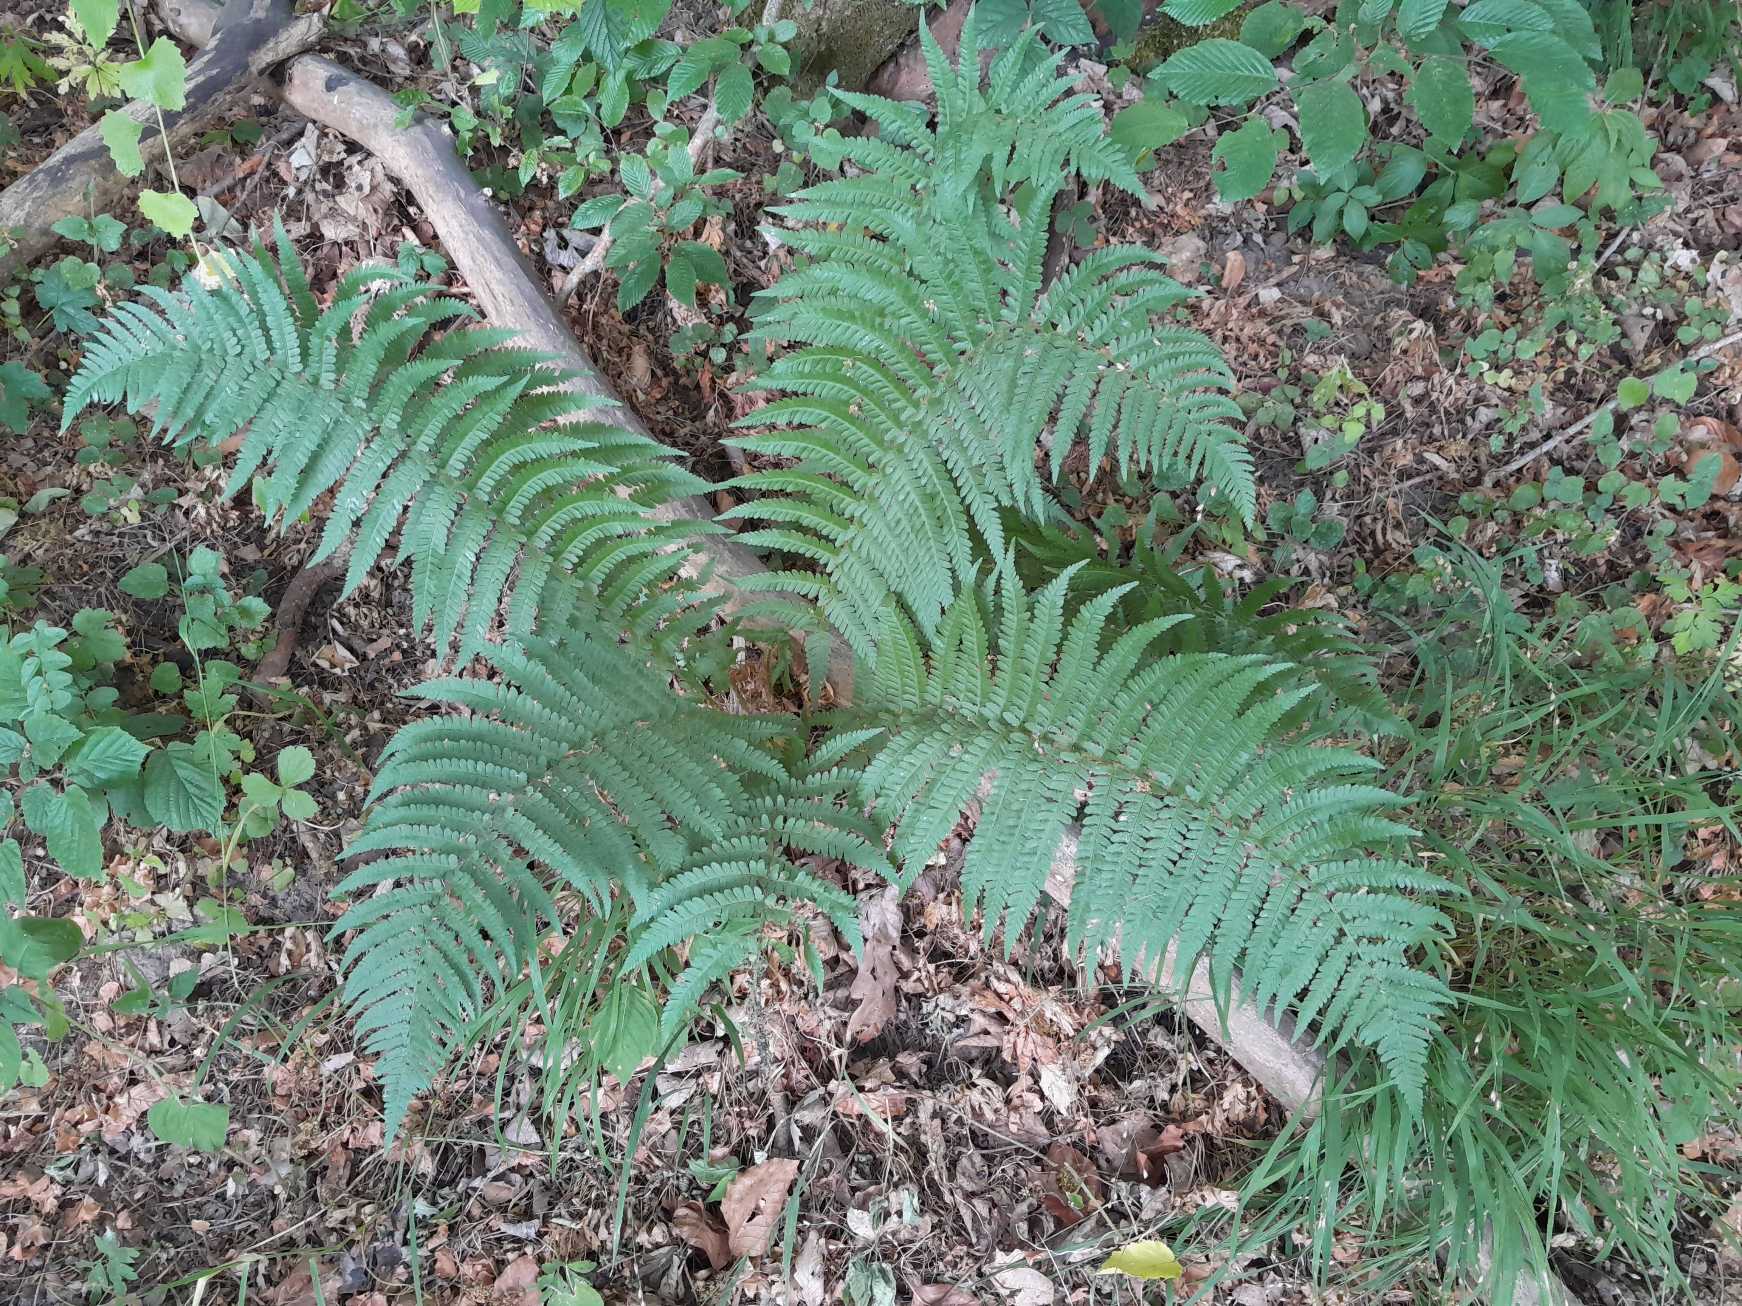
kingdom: Plantae
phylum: Tracheophyta
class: Polypodiopsida
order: Polypodiales
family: Dryopteridaceae
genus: Dryopteris
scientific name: Dryopteris filix-mas
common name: Almindelig mangeløv
